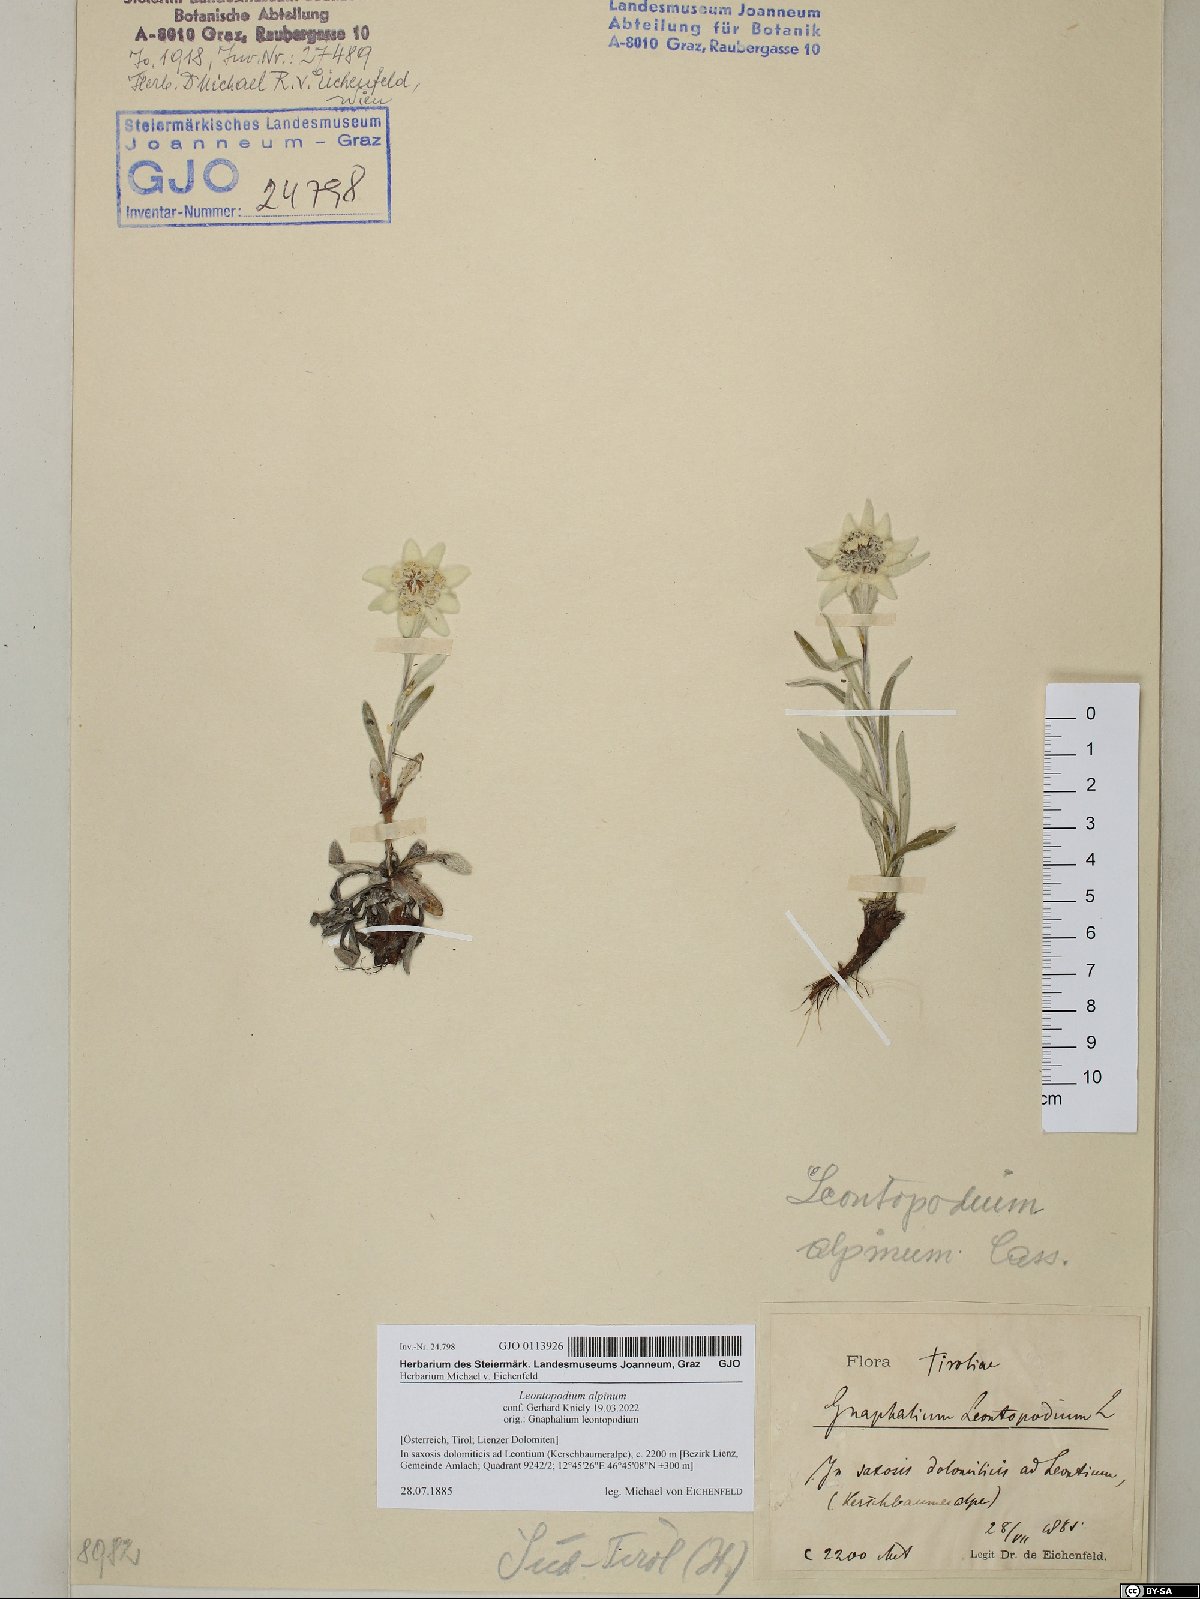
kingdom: Plantae
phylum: Tracheophyta
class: Magnoliopsida
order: Asterales
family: Asteraceae
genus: Leontopodium
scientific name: Leontopodium nivale
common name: Edelweiss
